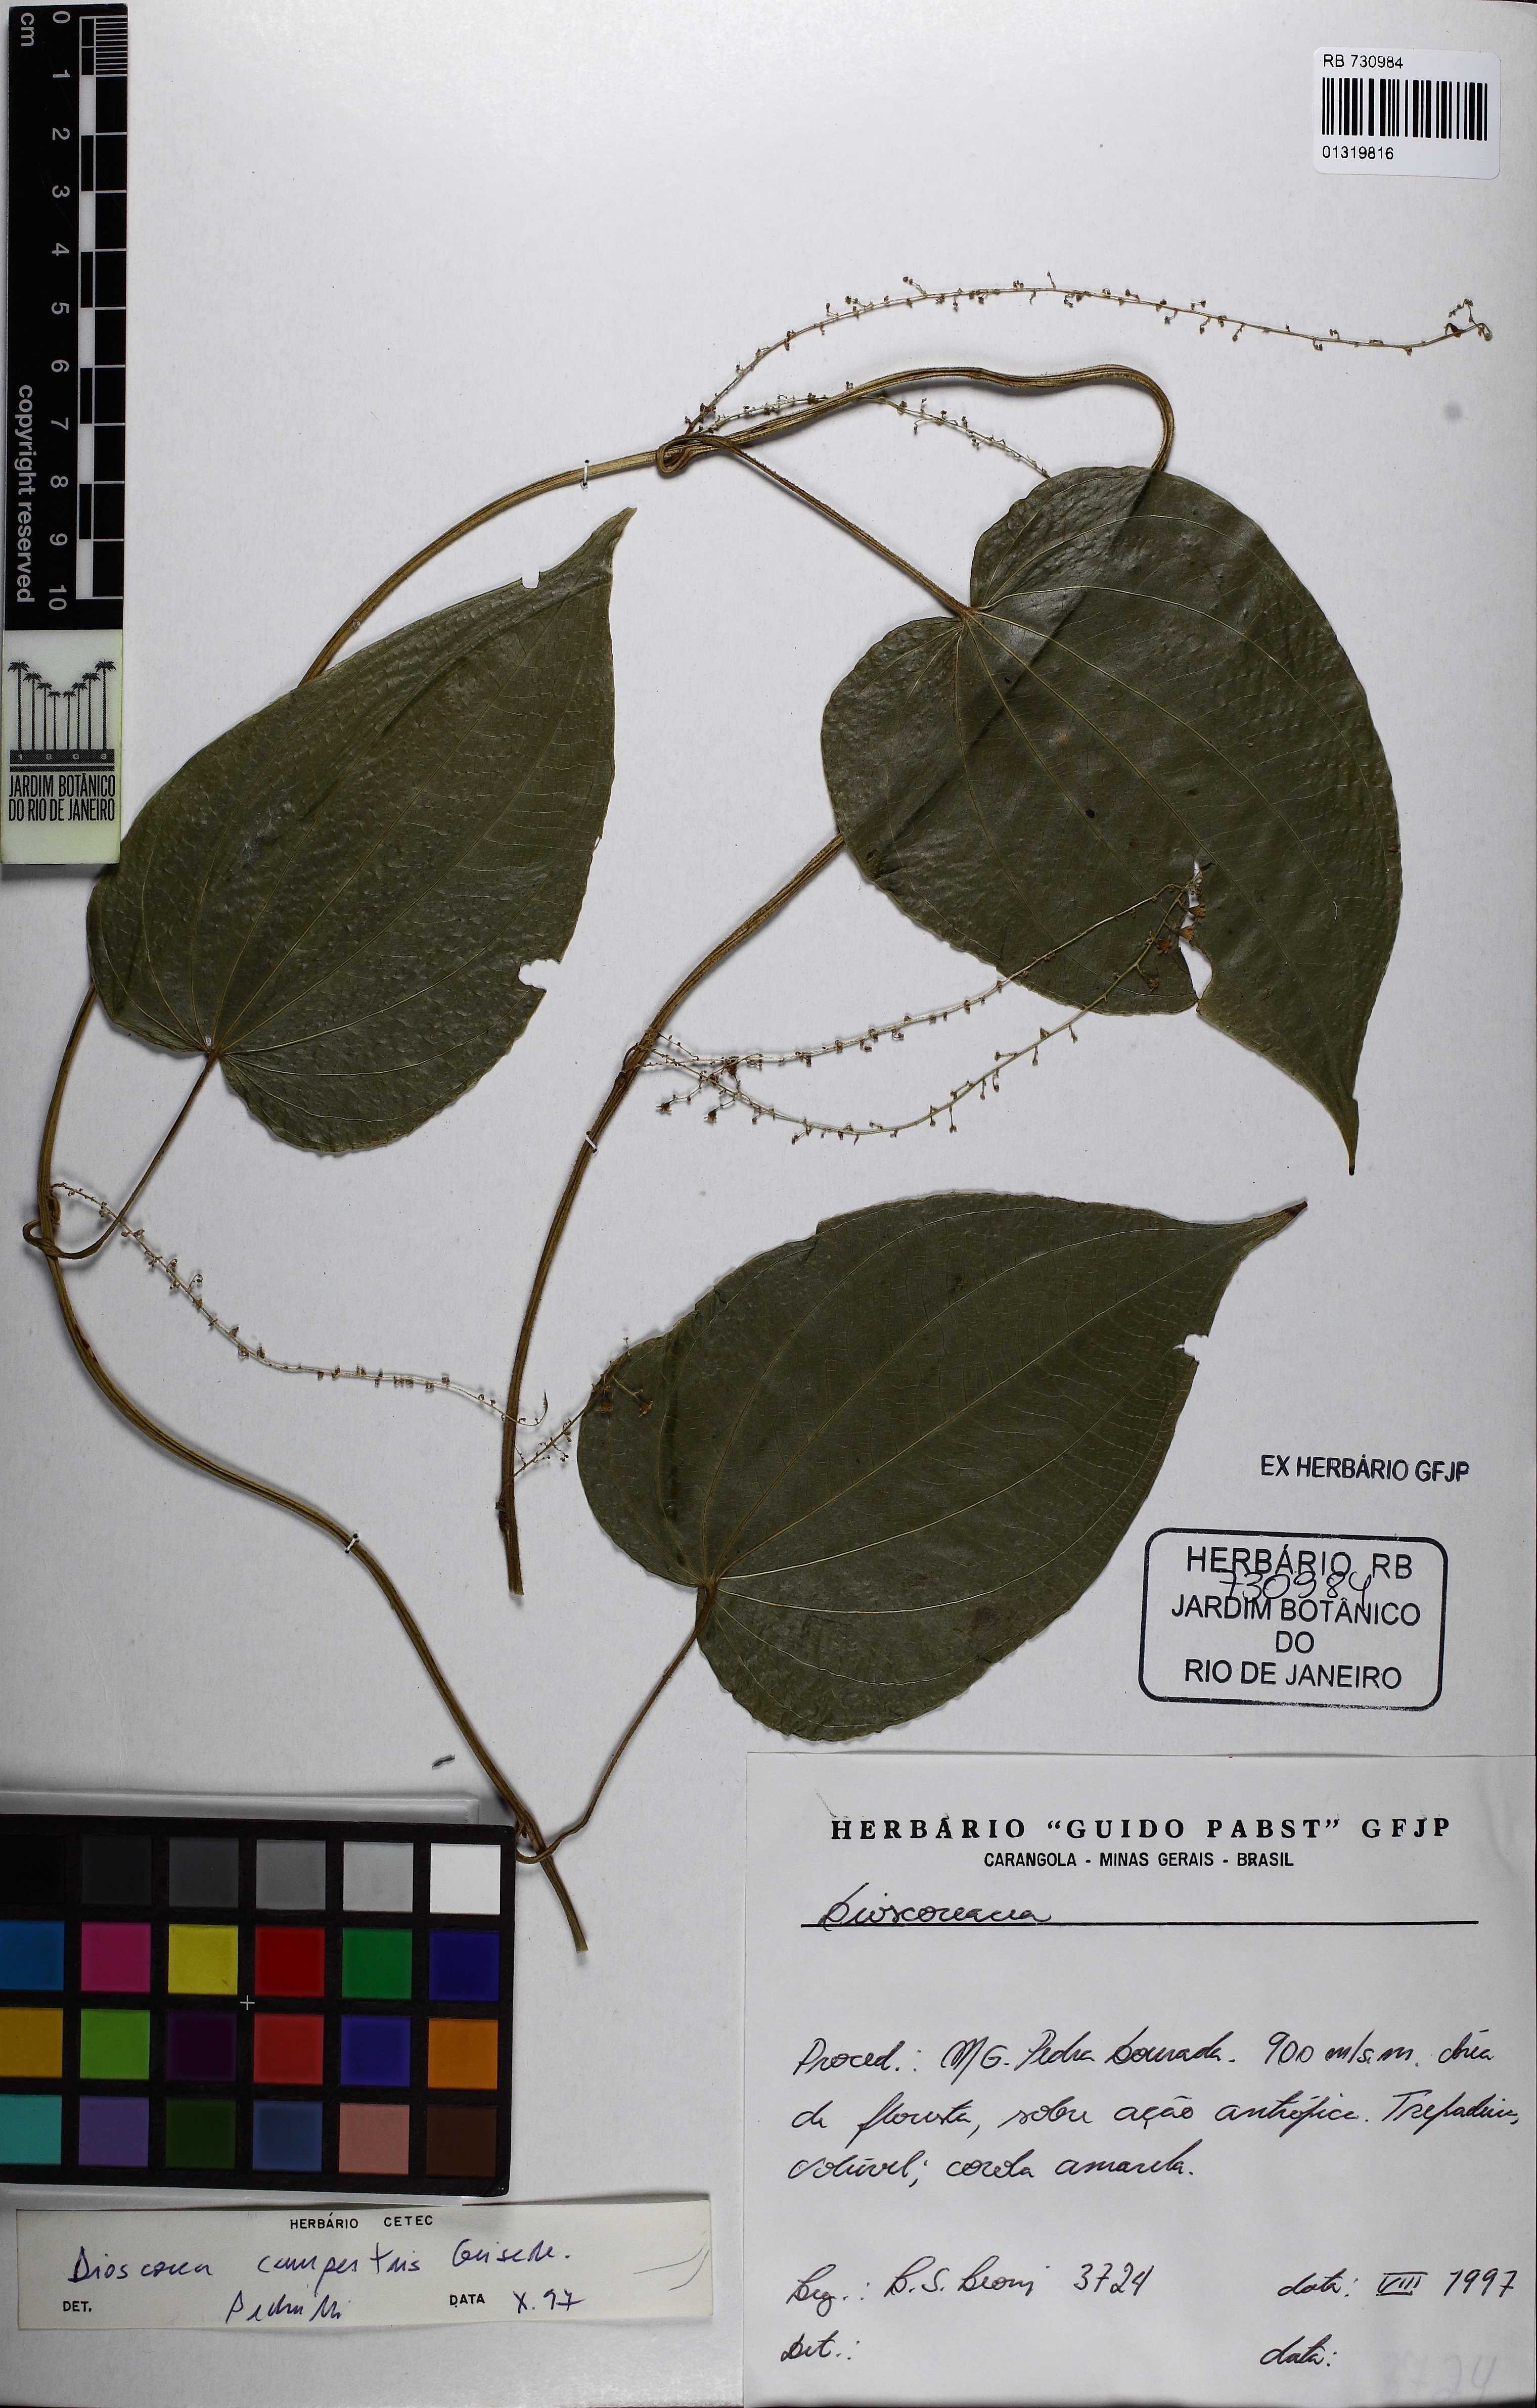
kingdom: Plantae
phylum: Tracheophyta
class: Liliopsida
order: Dioscoreales
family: Dioscoreaceae
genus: Dioscorea
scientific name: Dioscorea campestris
